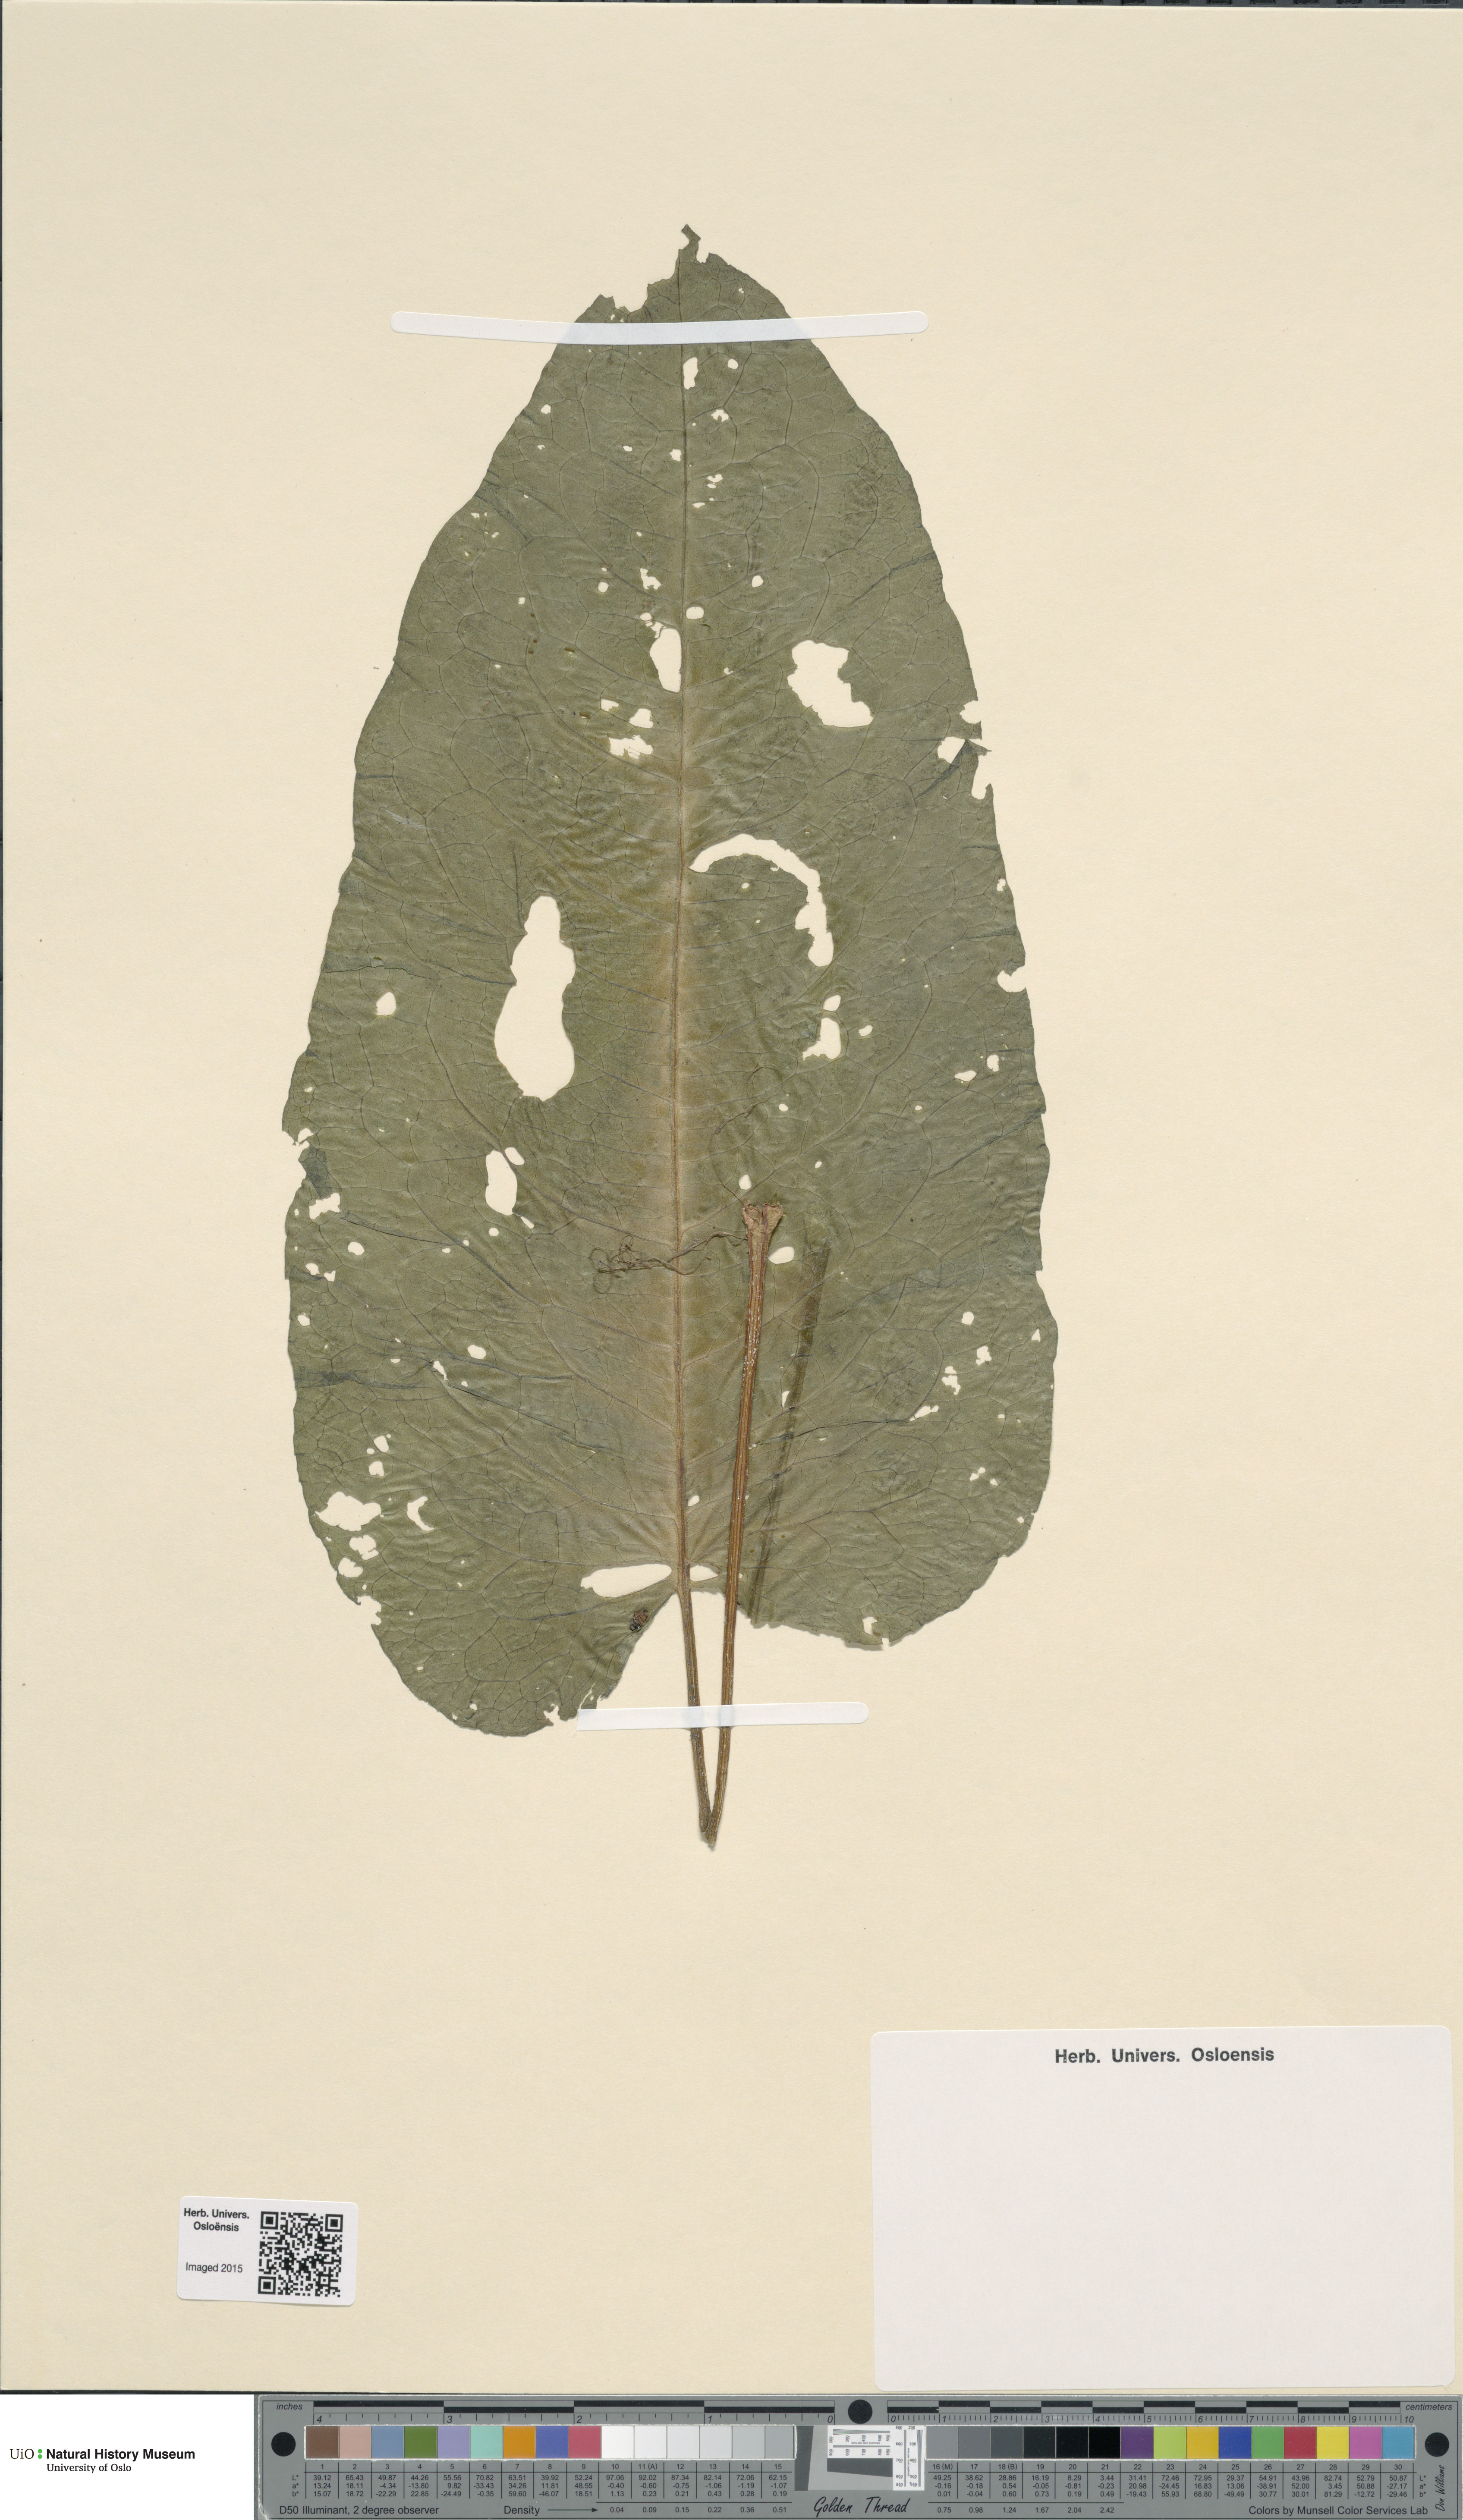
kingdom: Plantae
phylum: Tracheophyta
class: Magnoliopsida
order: Caryophyllales
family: Polygonaceae
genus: Rumex
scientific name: Rumex obtusifolius
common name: Bitter dock
